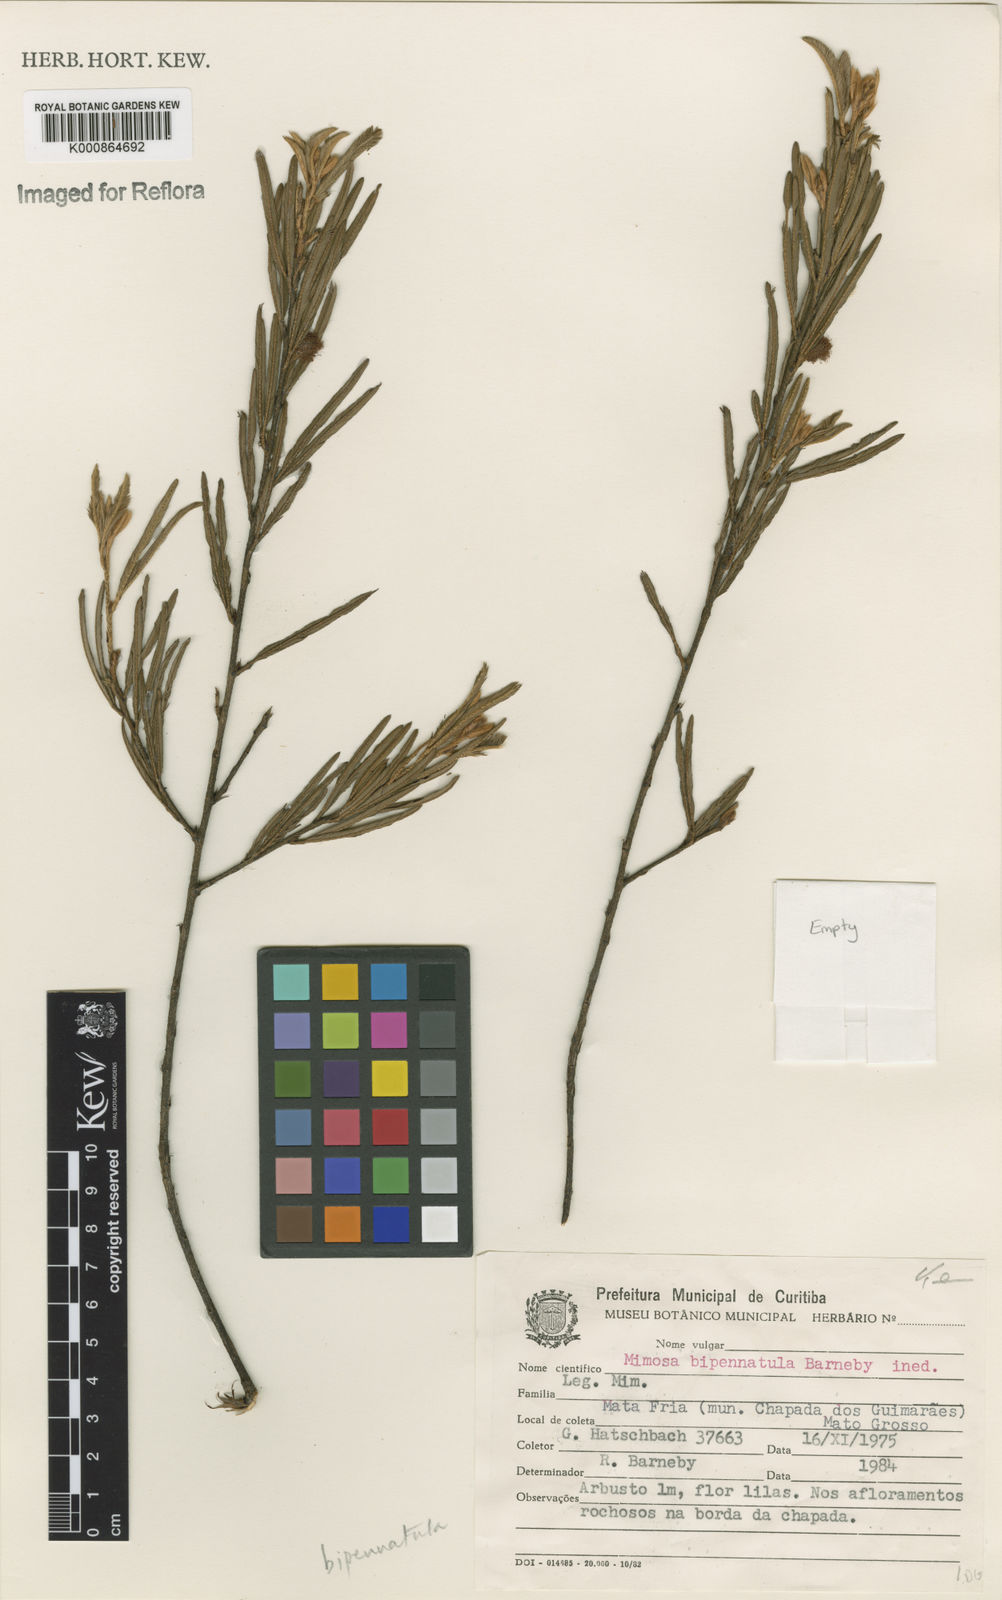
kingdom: Plantae
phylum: Tracheophyta
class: Magnoliopsida
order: Fabales
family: Fabaceae
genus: Mimosa
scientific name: Mimosa
